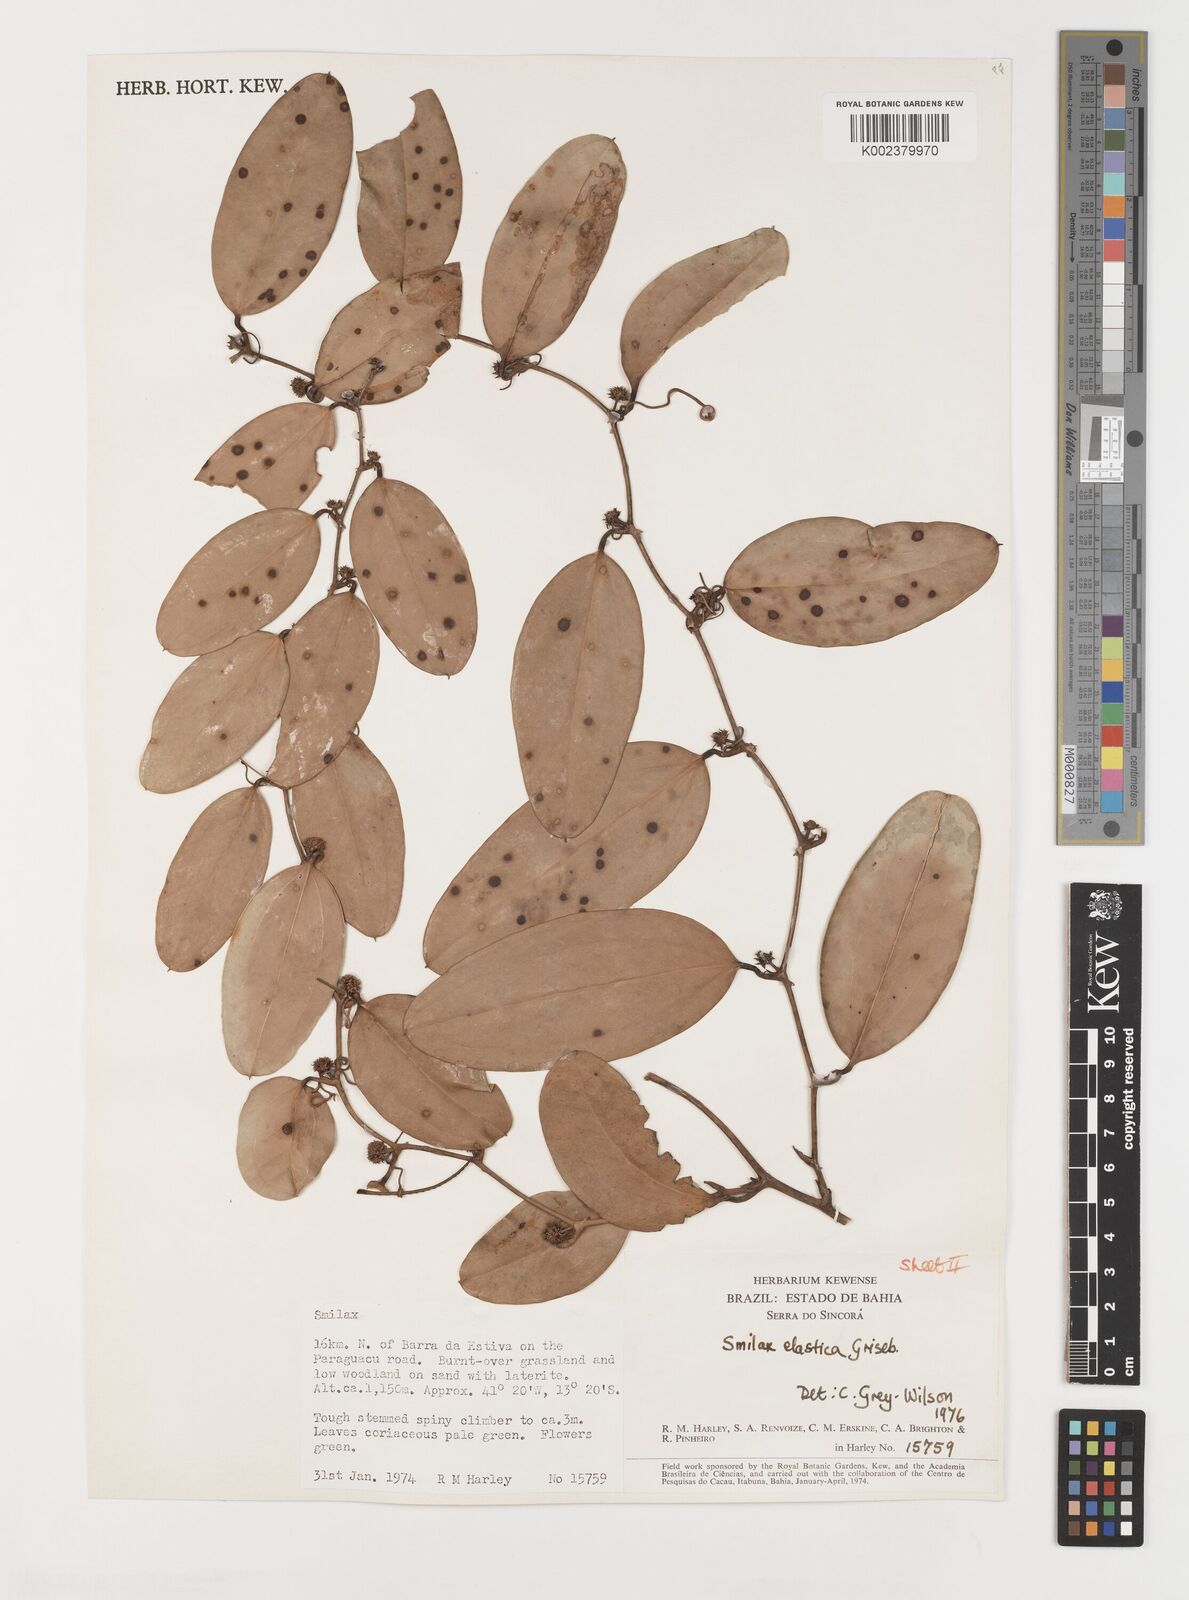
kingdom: Plantae
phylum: Tracheophyta
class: Liliopsida
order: Liliales
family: Smilacaceae
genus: Smilax
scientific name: Smilax elastica
